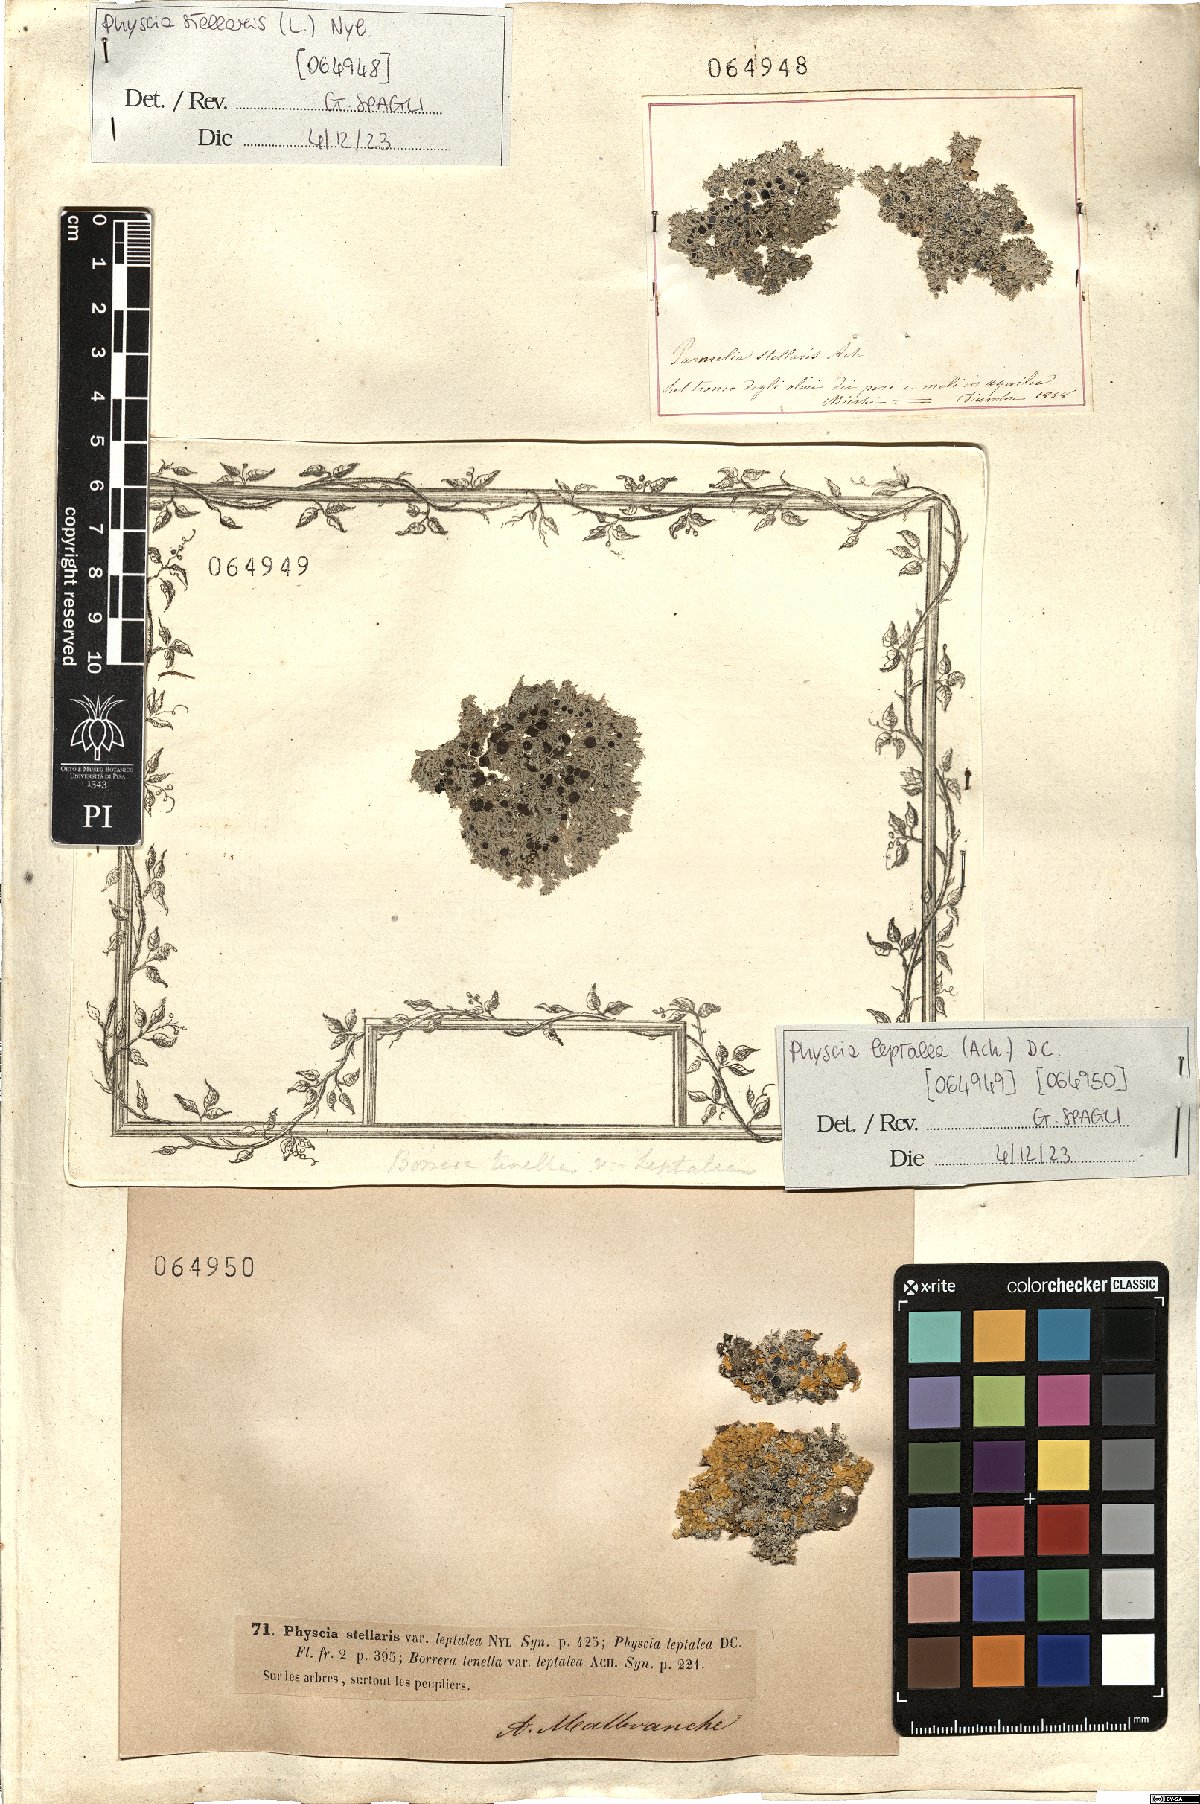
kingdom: Fungi
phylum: Ascomycota
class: Lecanoromycetes
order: Caliciales
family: Physciaceae
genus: Physcia
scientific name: Physcia leptalea
